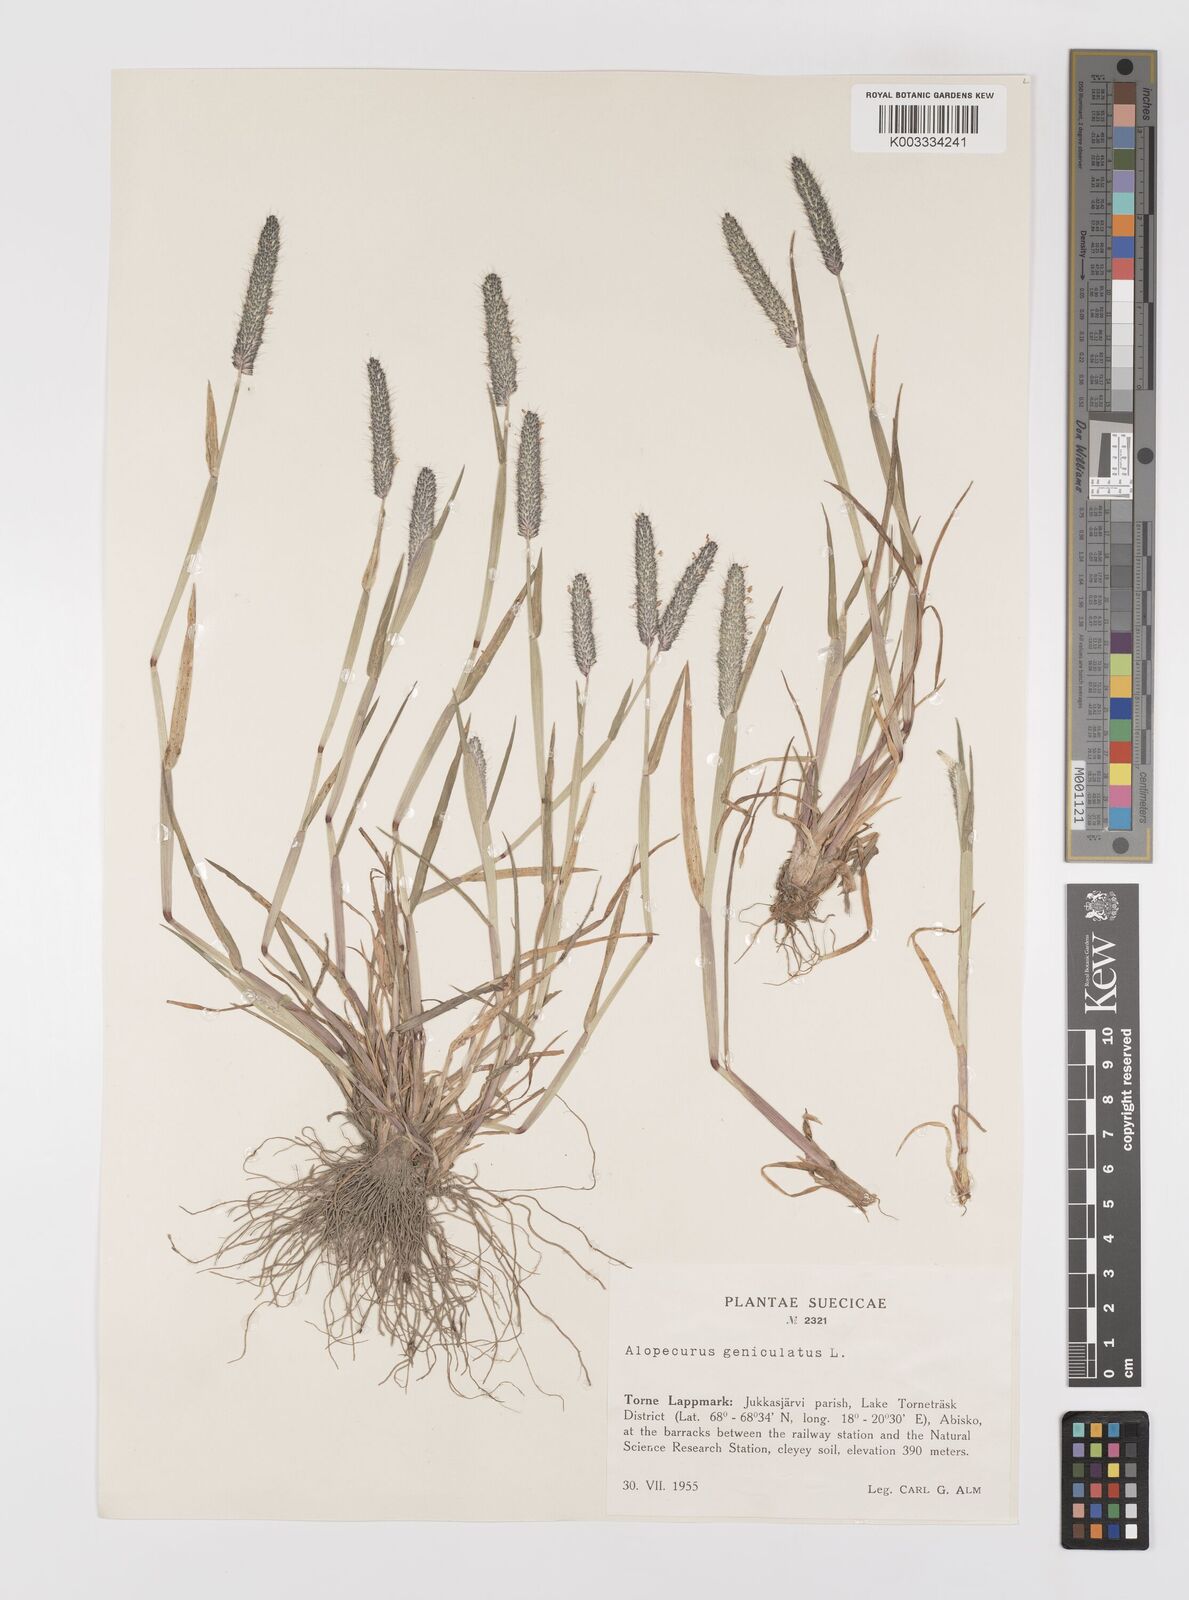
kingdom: Plantae
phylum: Tracheophyta
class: Liliopsida
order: Poales
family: Poaceae
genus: Alopecurus
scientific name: Alopecurus geniculatus
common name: Water foxtail
